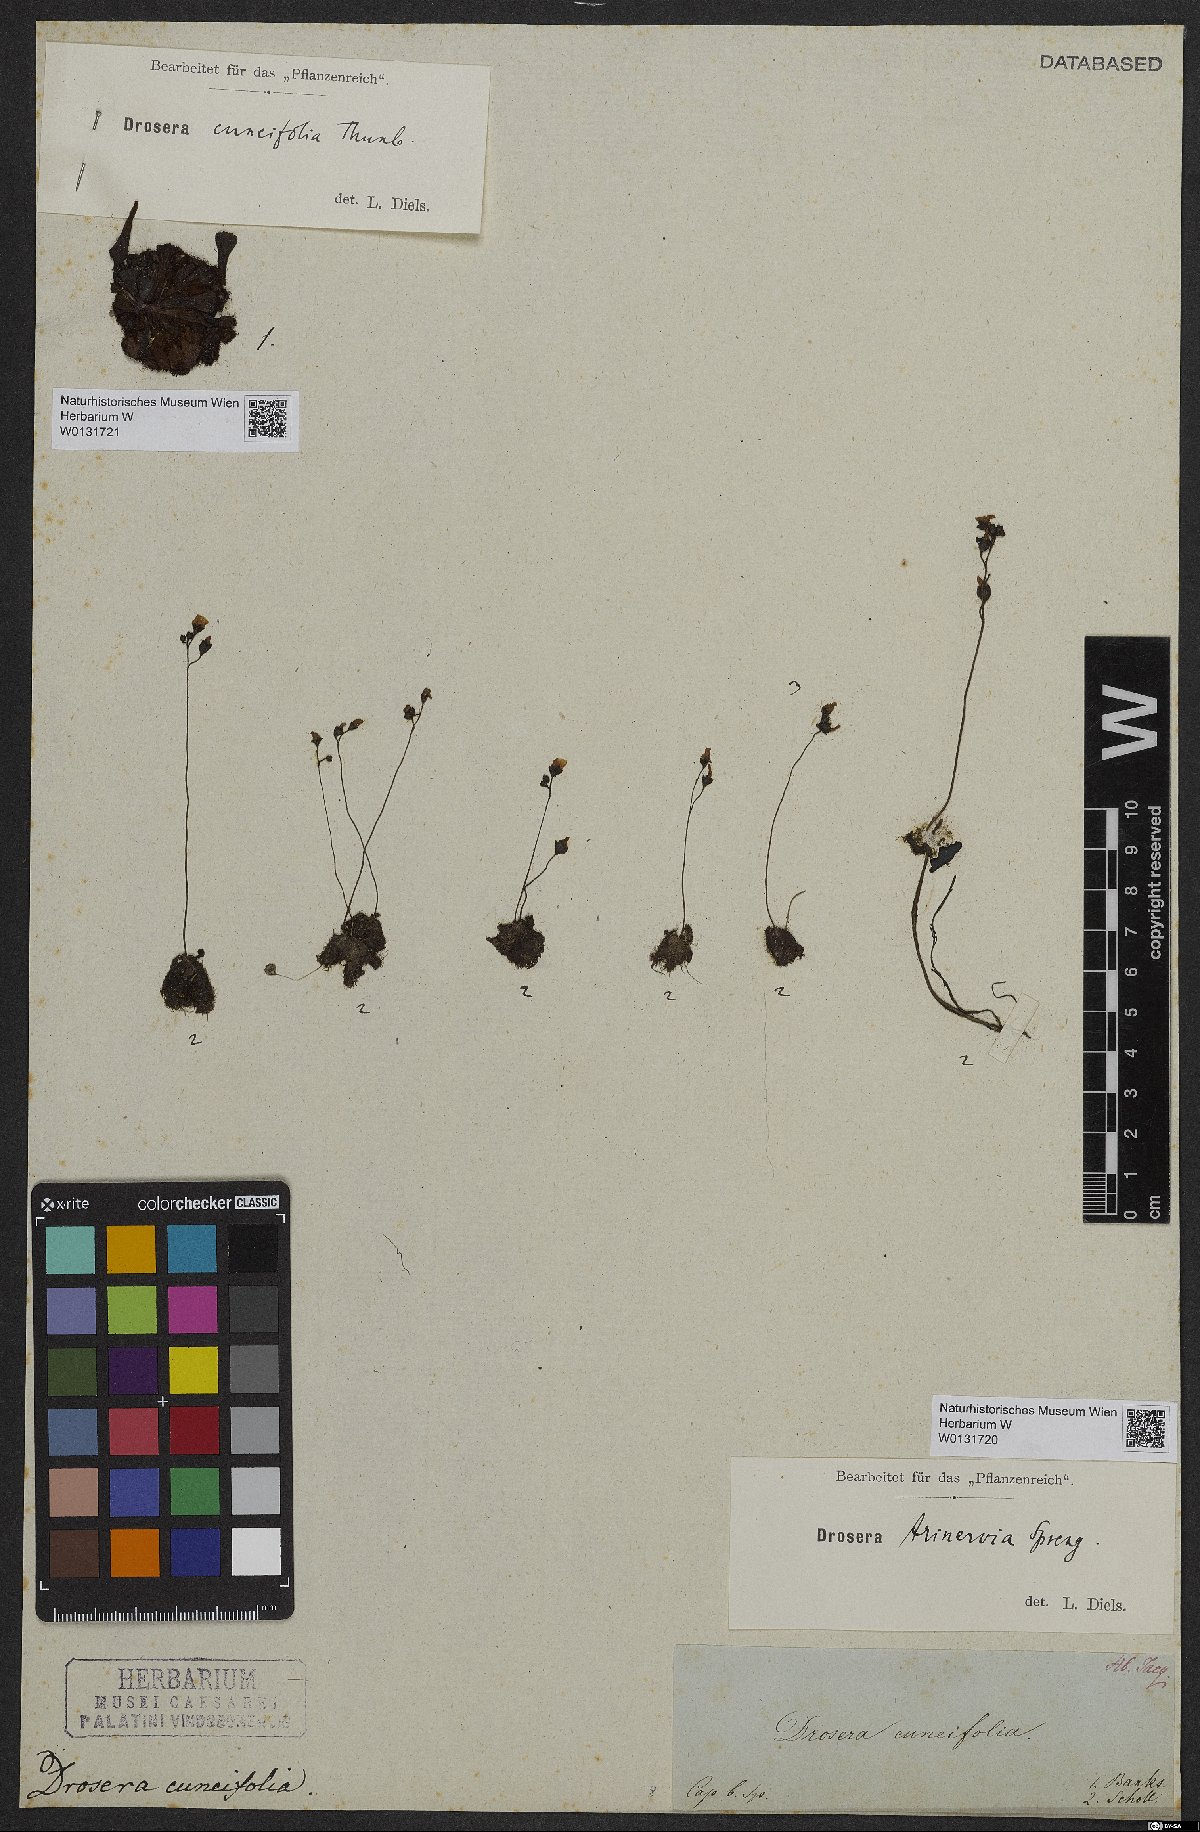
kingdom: Plantae
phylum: Tracheophyta
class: Magnoliopsida
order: Caryophyllales
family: Droseraceae
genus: Drosera
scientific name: Drosera trinervia
